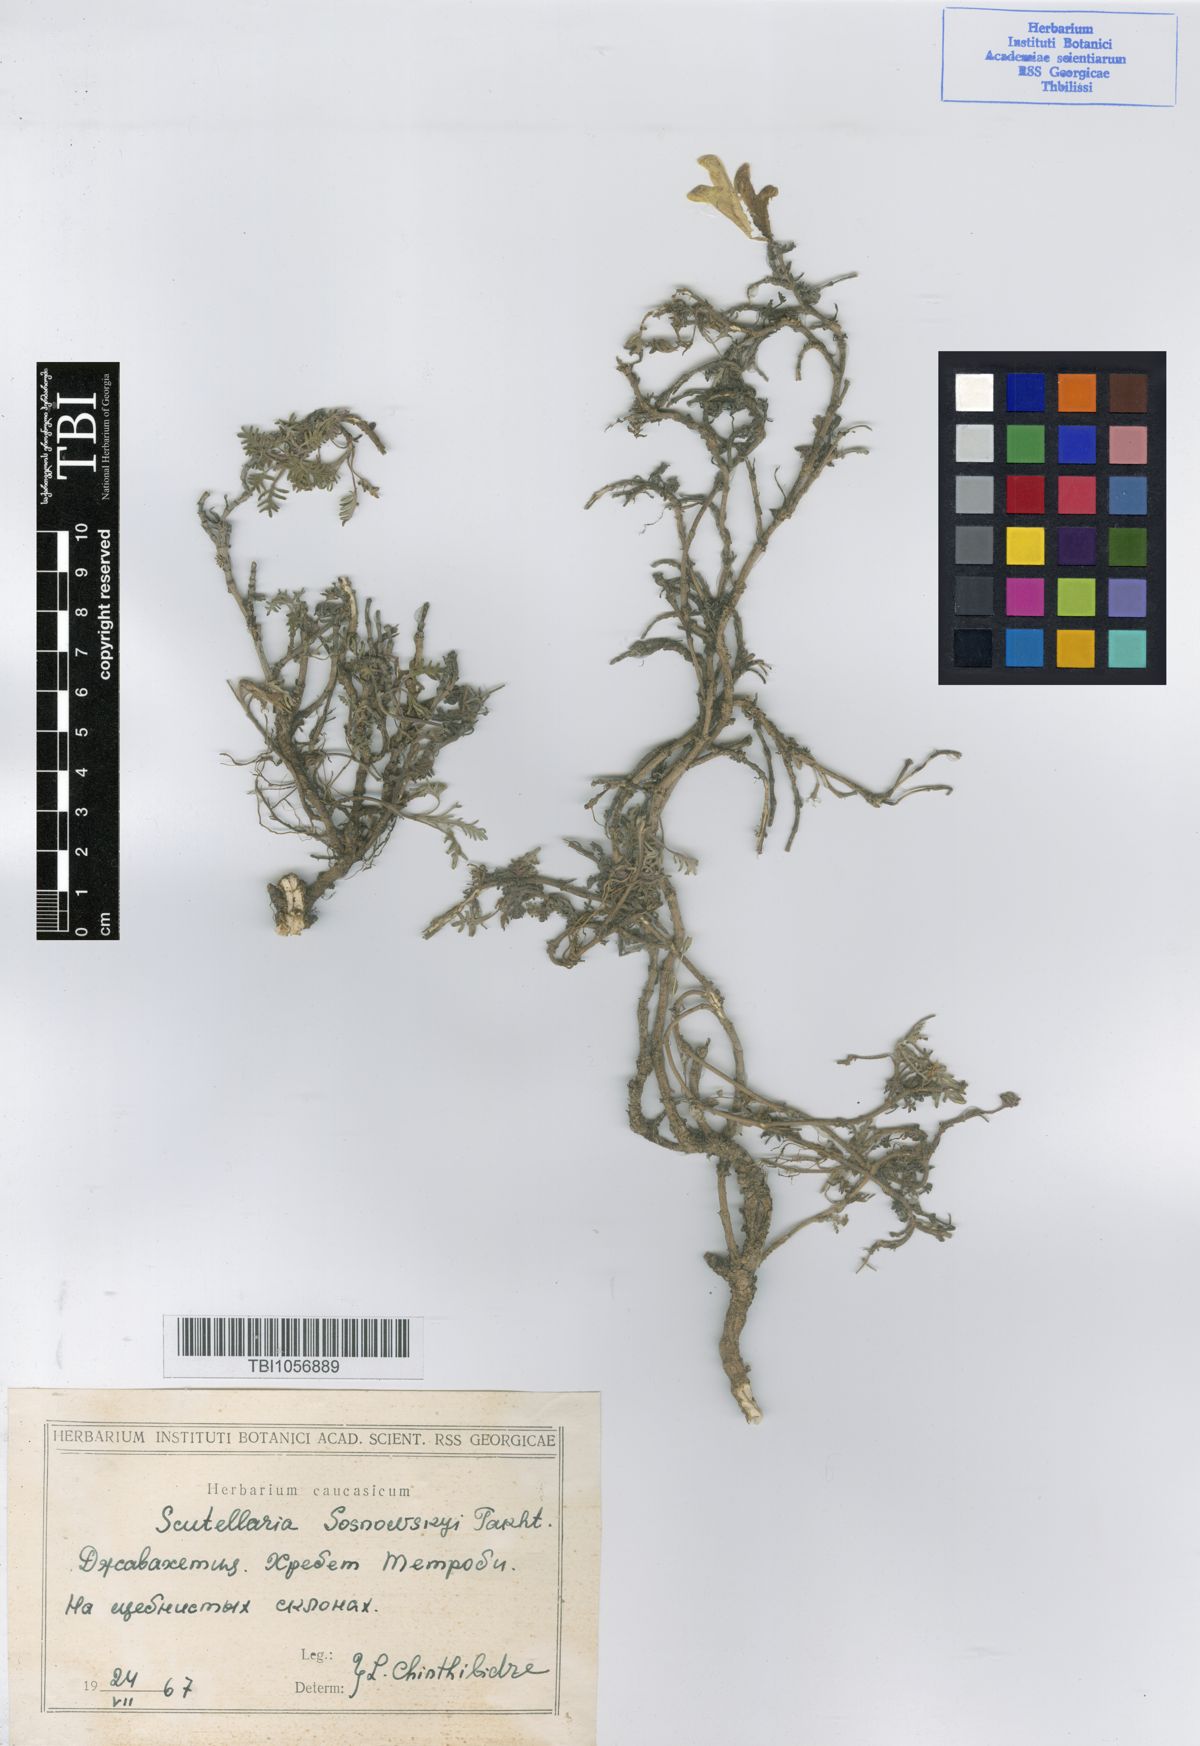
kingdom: Plantae
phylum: Tracheophyta
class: Magnoliopsida
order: Lamiales
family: Lamiaceae
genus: Scutellaria
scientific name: Scutellaria sosnowskyi
